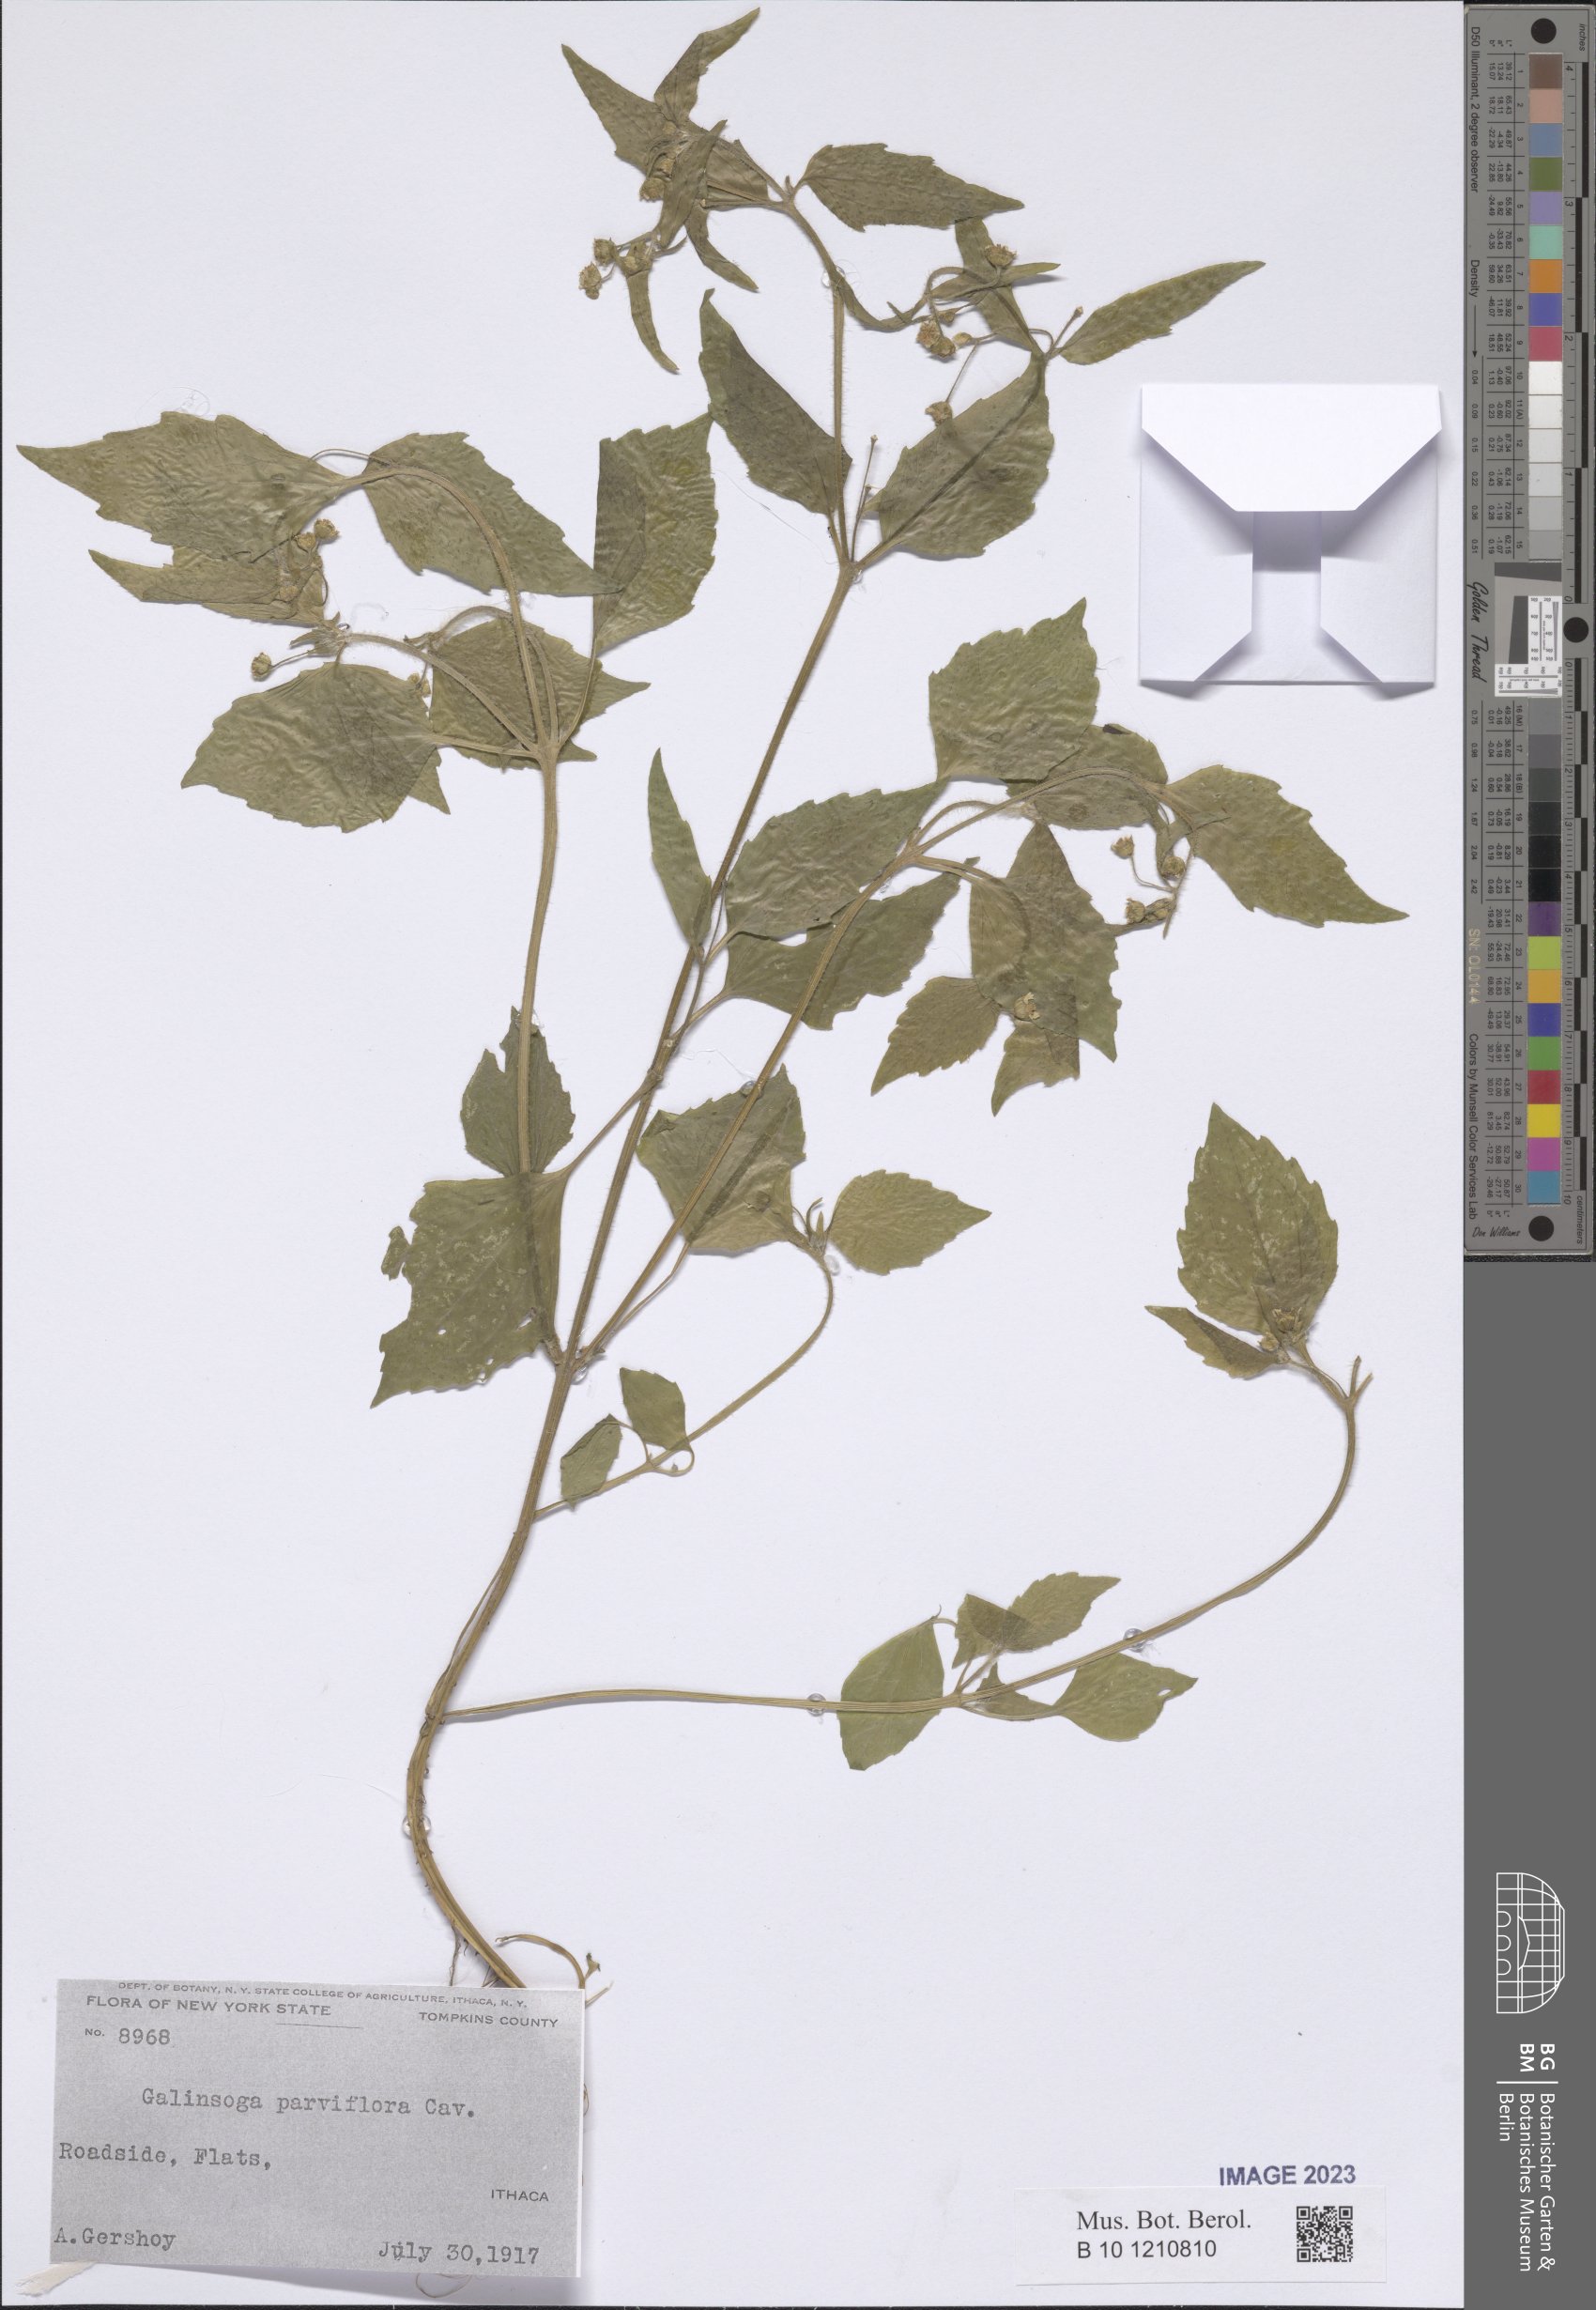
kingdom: Plantae
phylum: Tracheophyta
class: Magnoliopsida
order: Asterales
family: Asteraceae
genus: Galinsoga
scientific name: Galinsoga parviflora
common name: Gallant soldier
